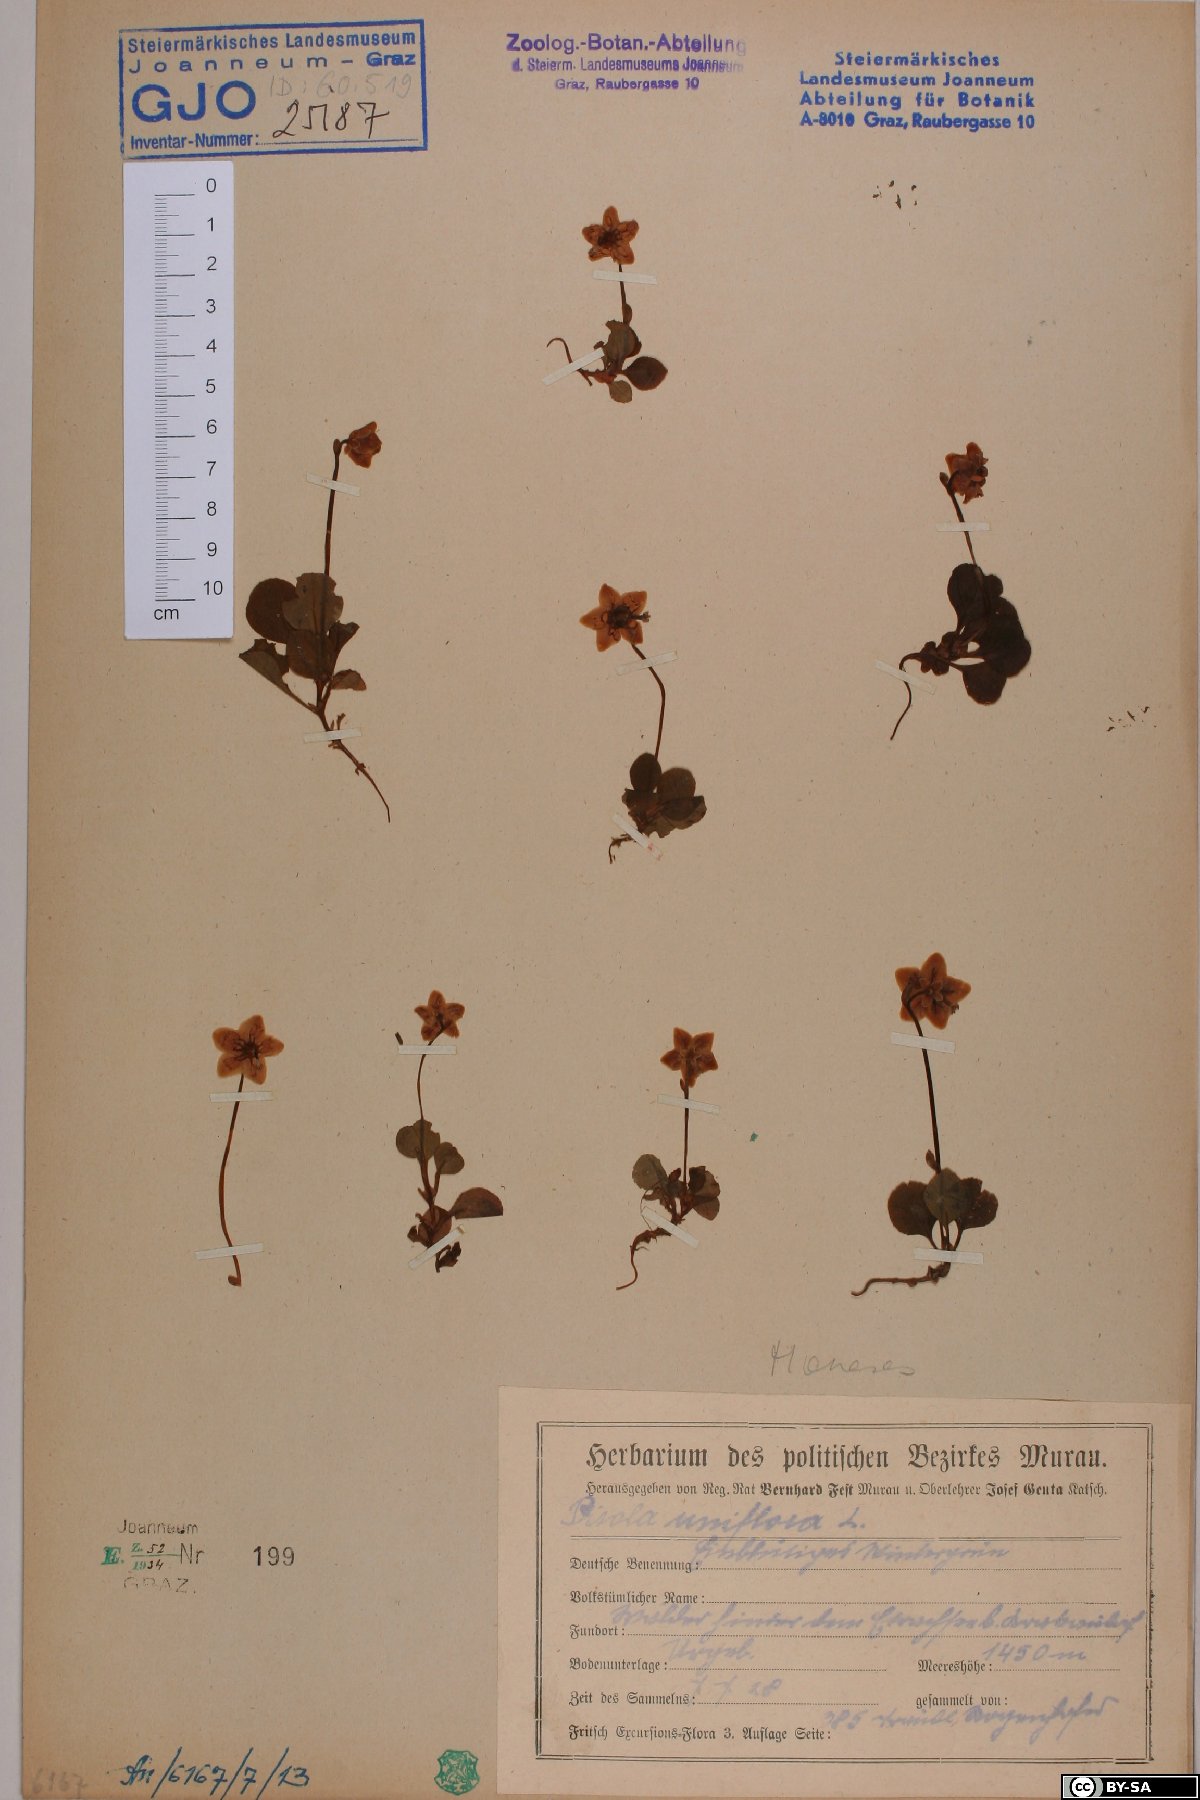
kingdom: Plantae
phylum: Tracheophyta
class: Magnoliopsida
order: Ericales
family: Ericaceae
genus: Moneses
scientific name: Moneses uniflora
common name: One-flowered wintergreen
